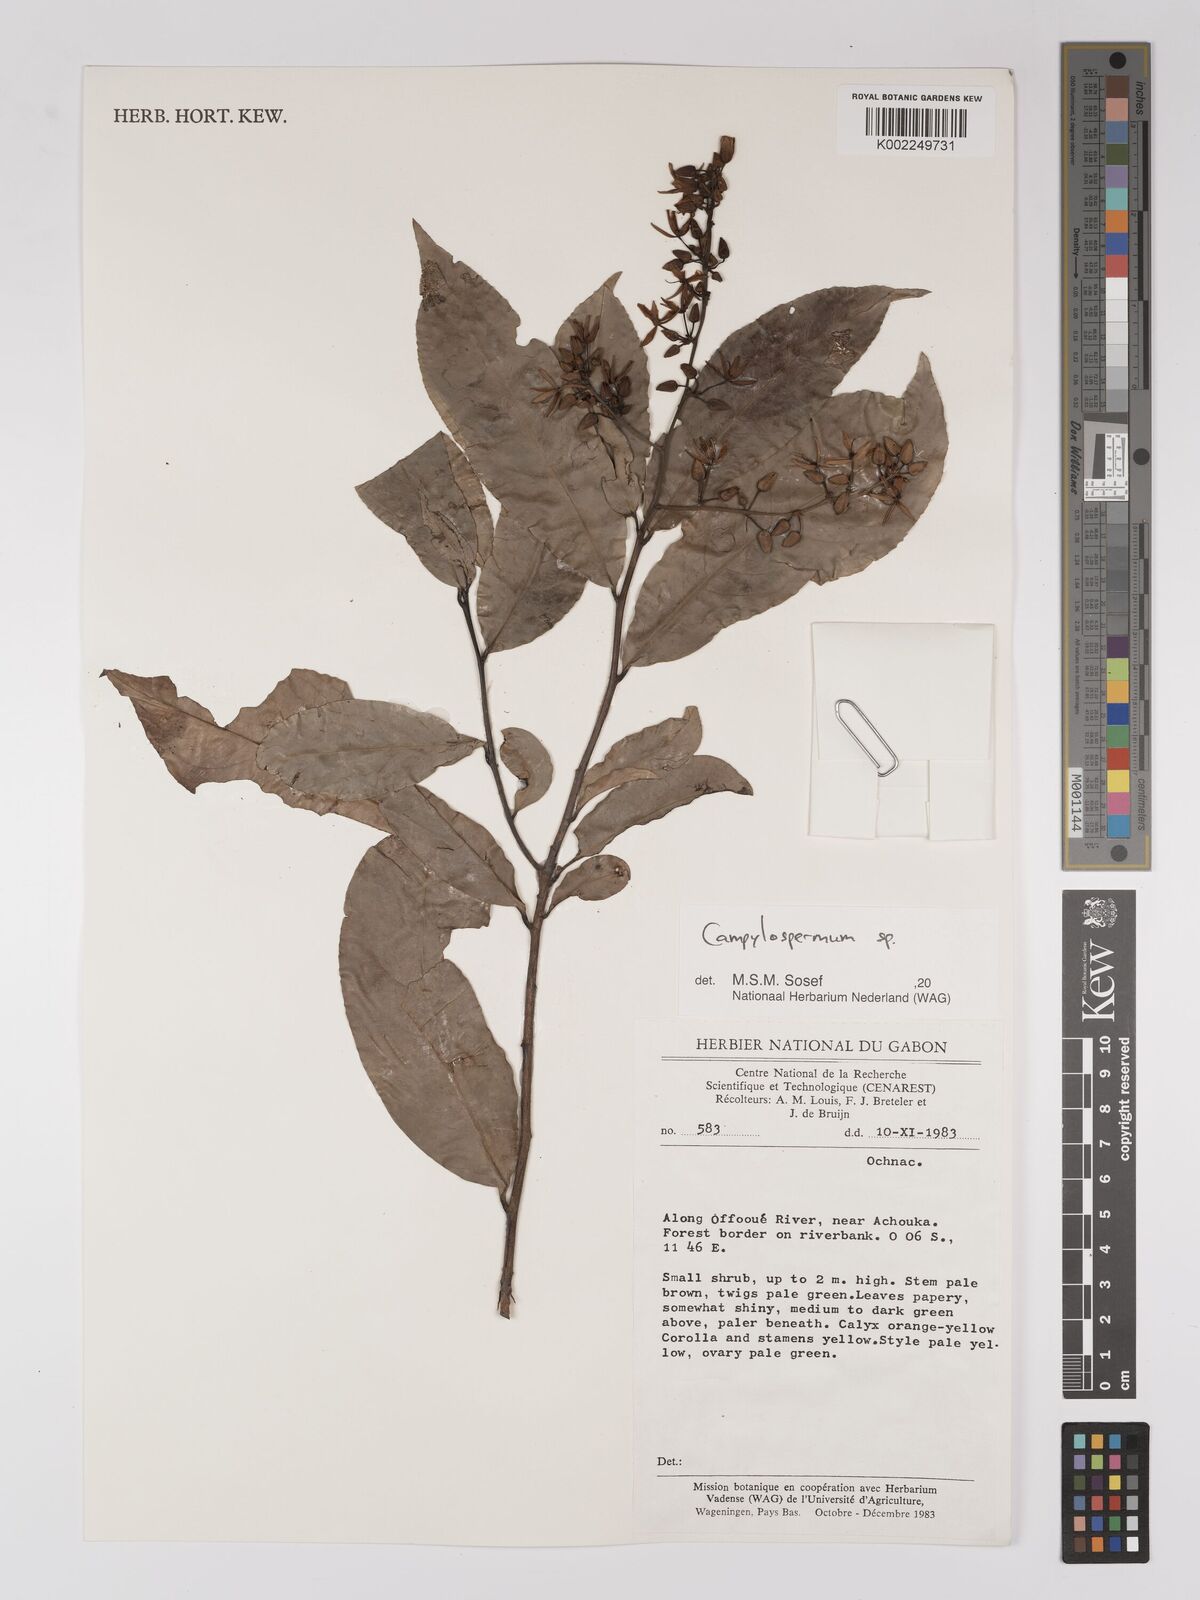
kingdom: Plantae
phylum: Tracheophyta
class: Magnoliopsida
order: Malpighiales
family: Ochnaceae
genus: Campylospermum
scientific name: Campylospermum
